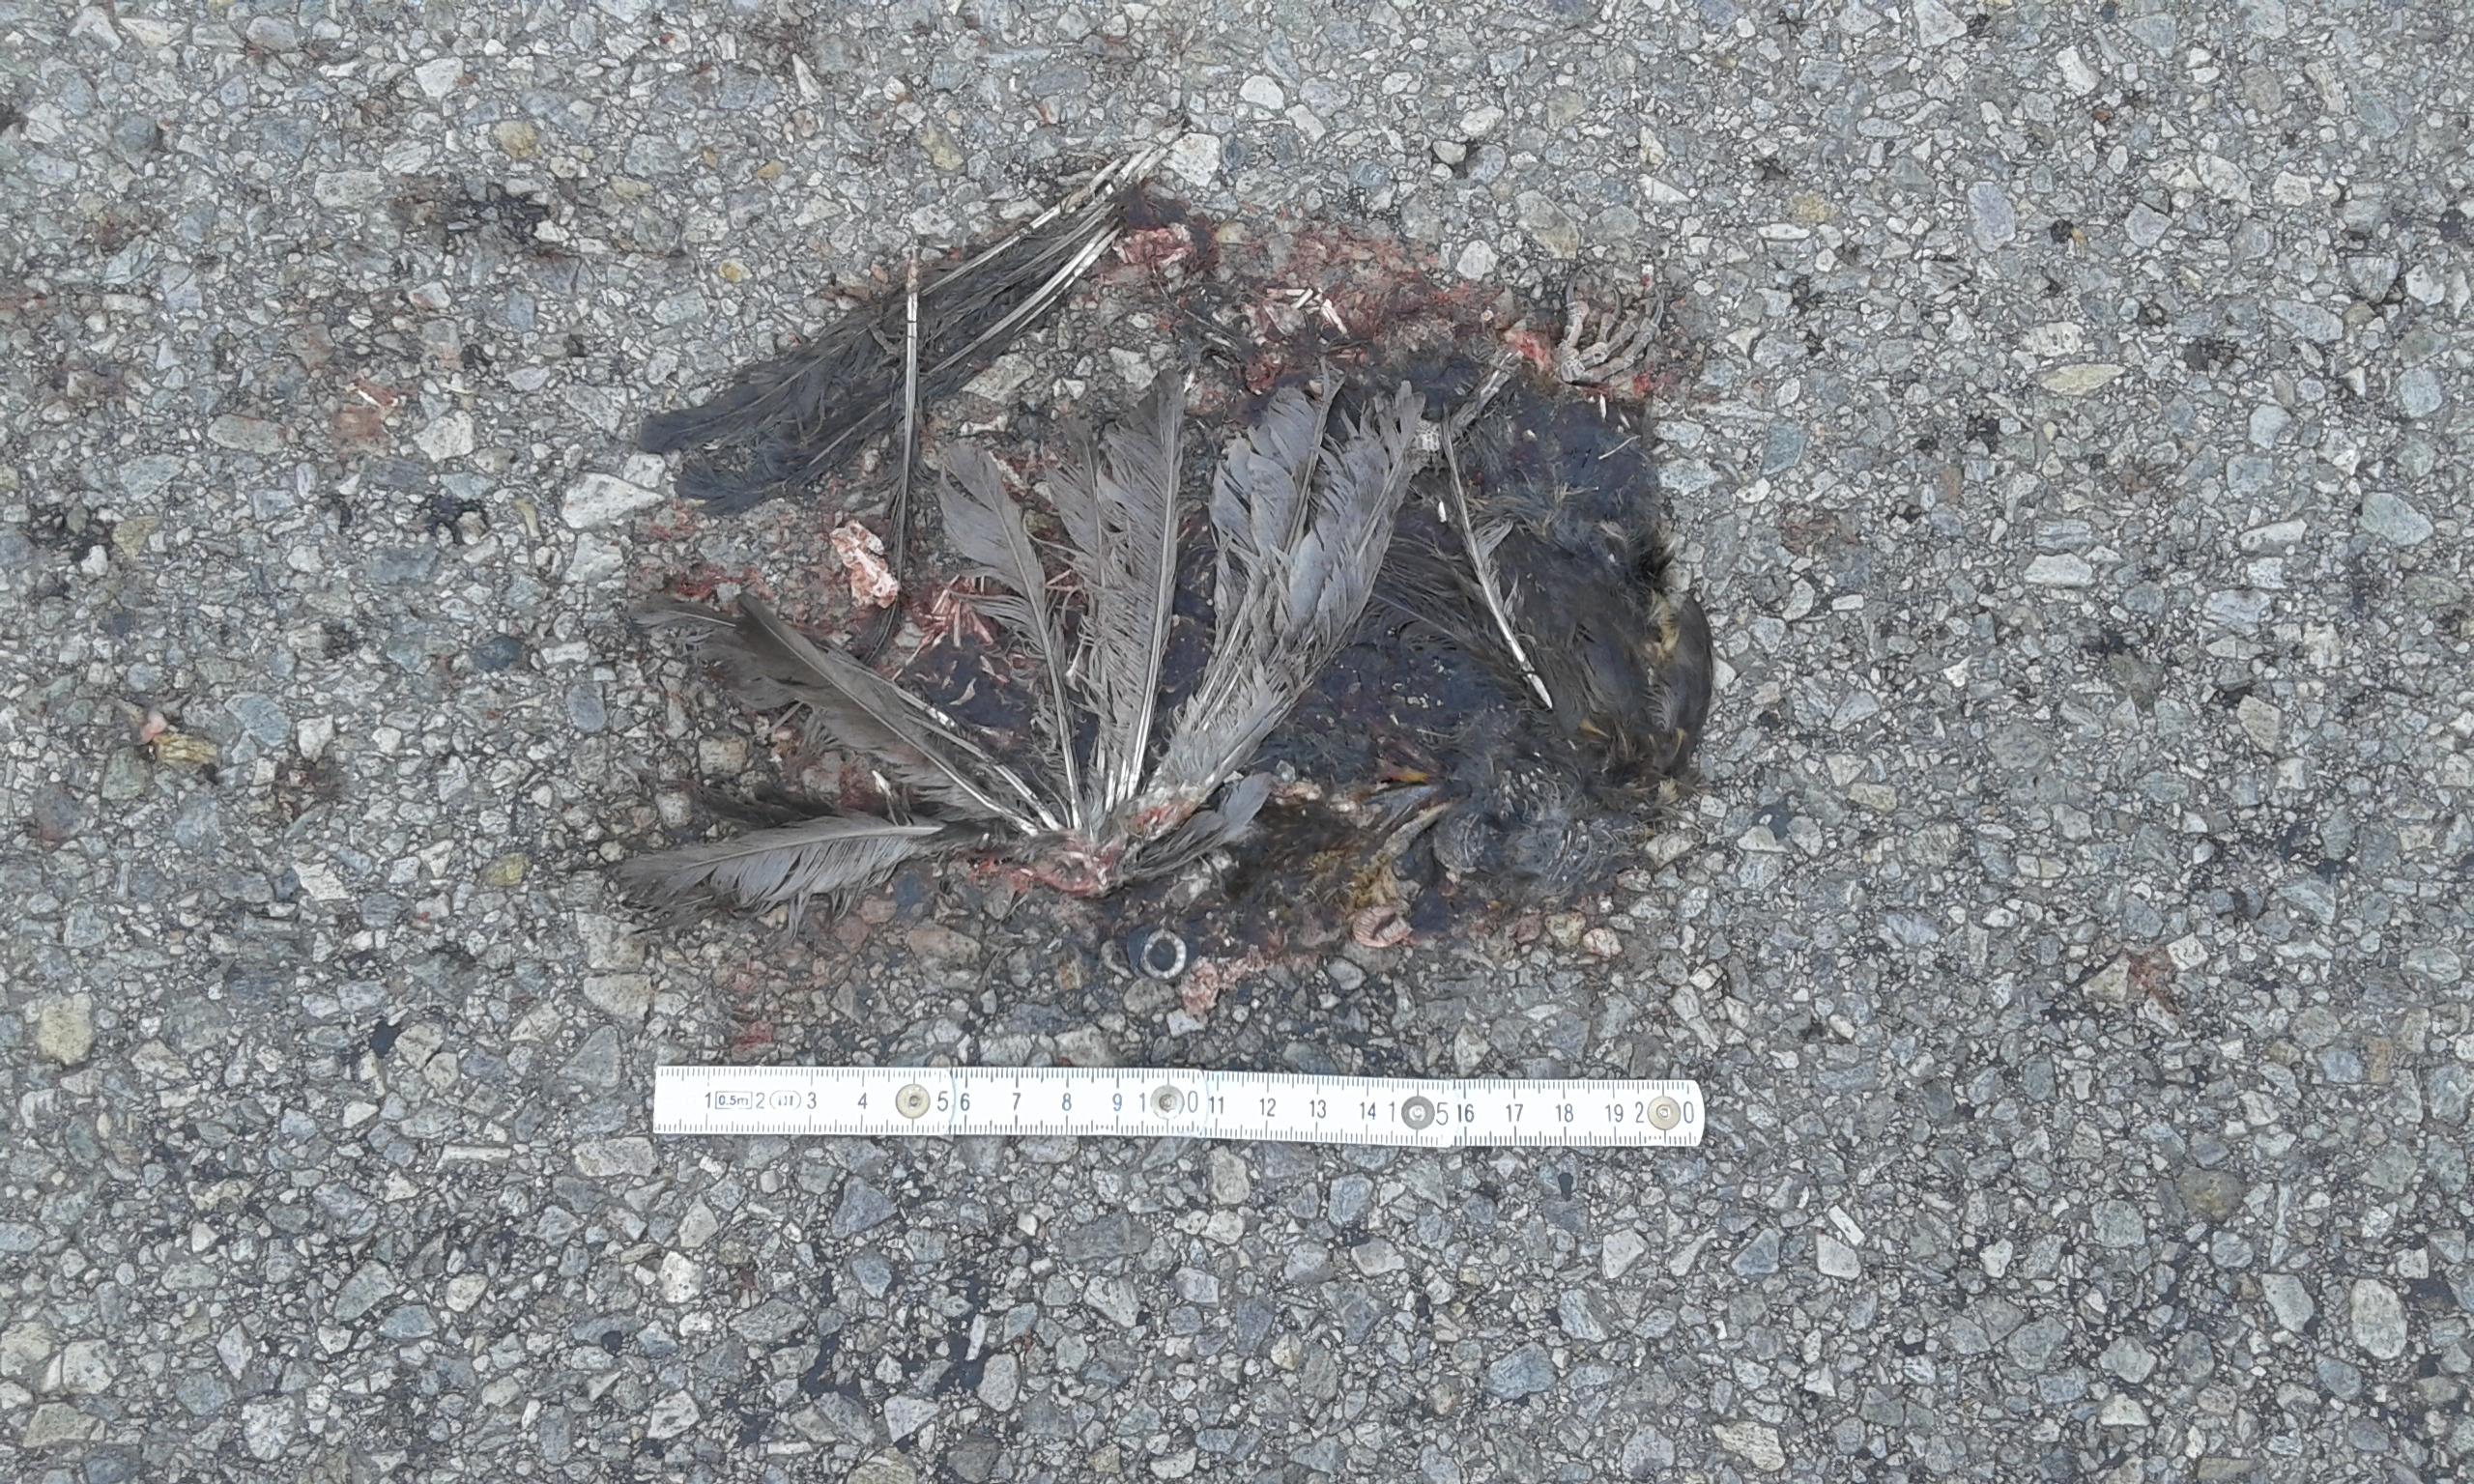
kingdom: Animalia
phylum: Chordata
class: Aves
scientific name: Aves
